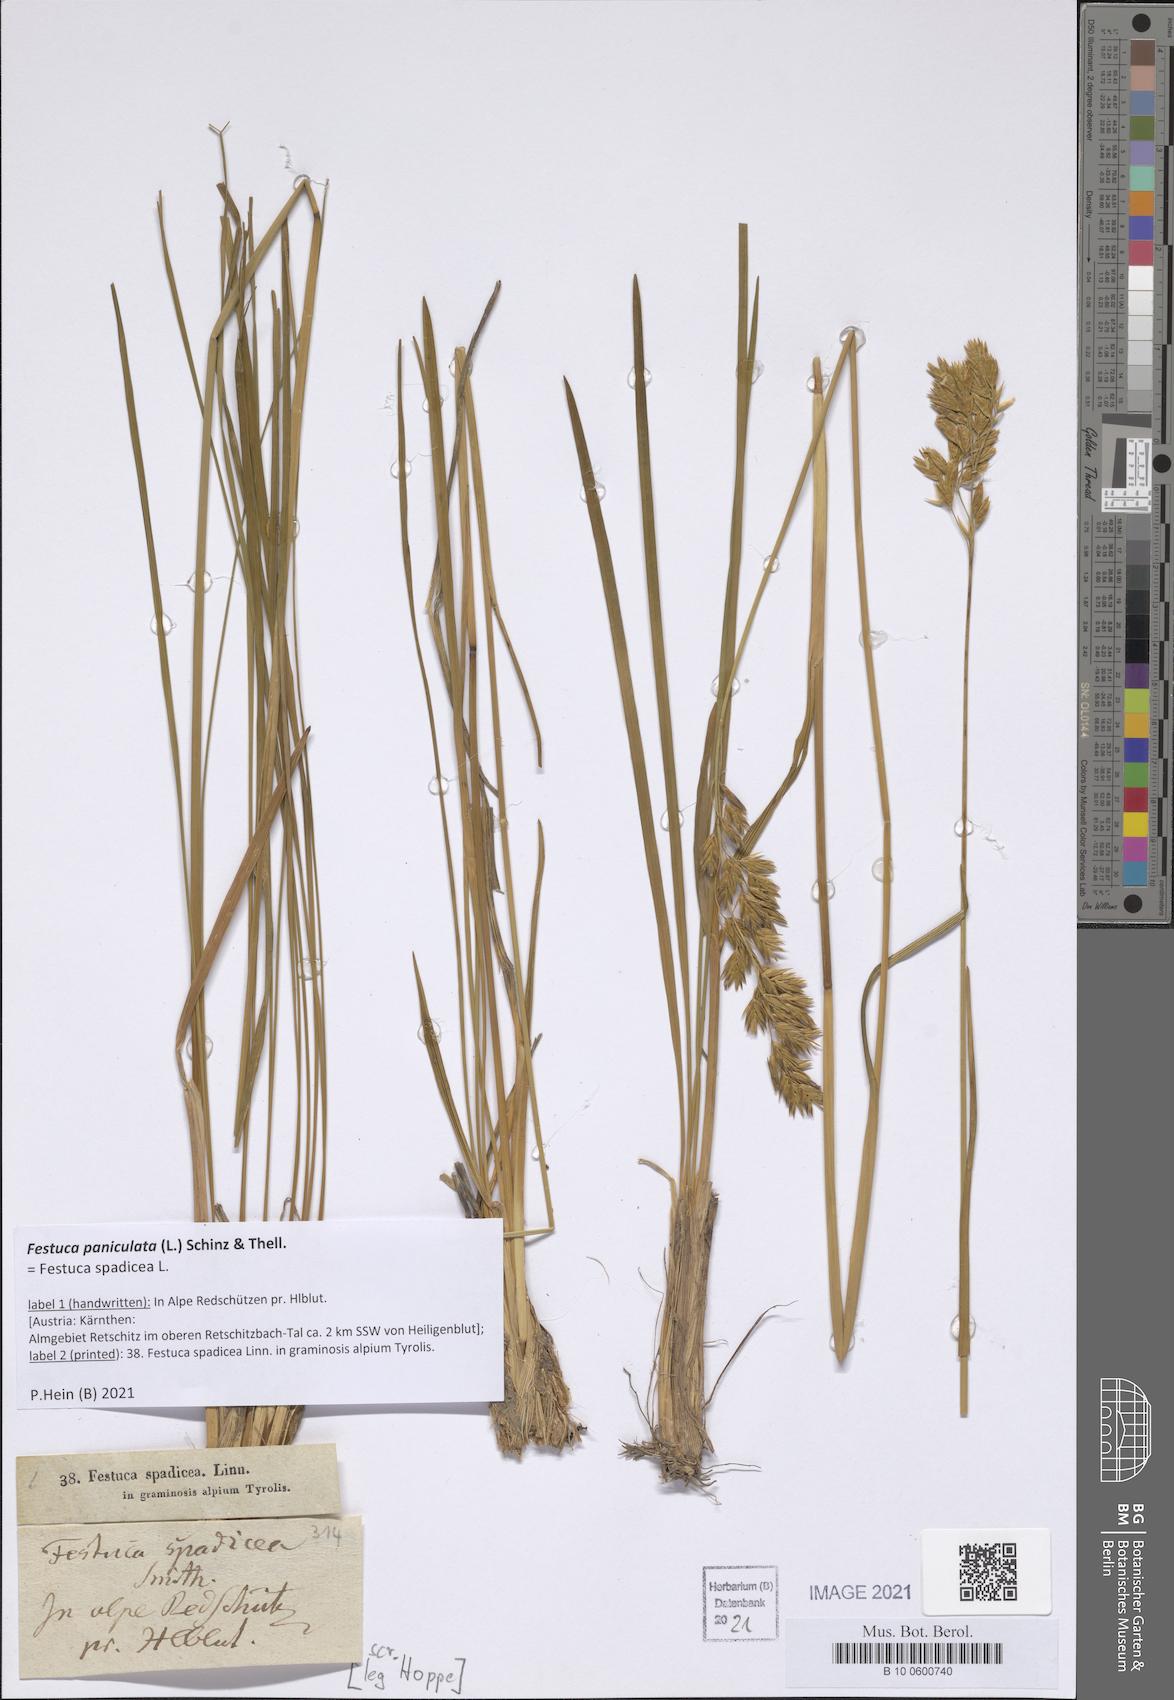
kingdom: Plantae
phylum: Tracheophyta
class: Liliopsida
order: Poales
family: Poaceae
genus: Patzkea
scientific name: Patzkea paniculata
